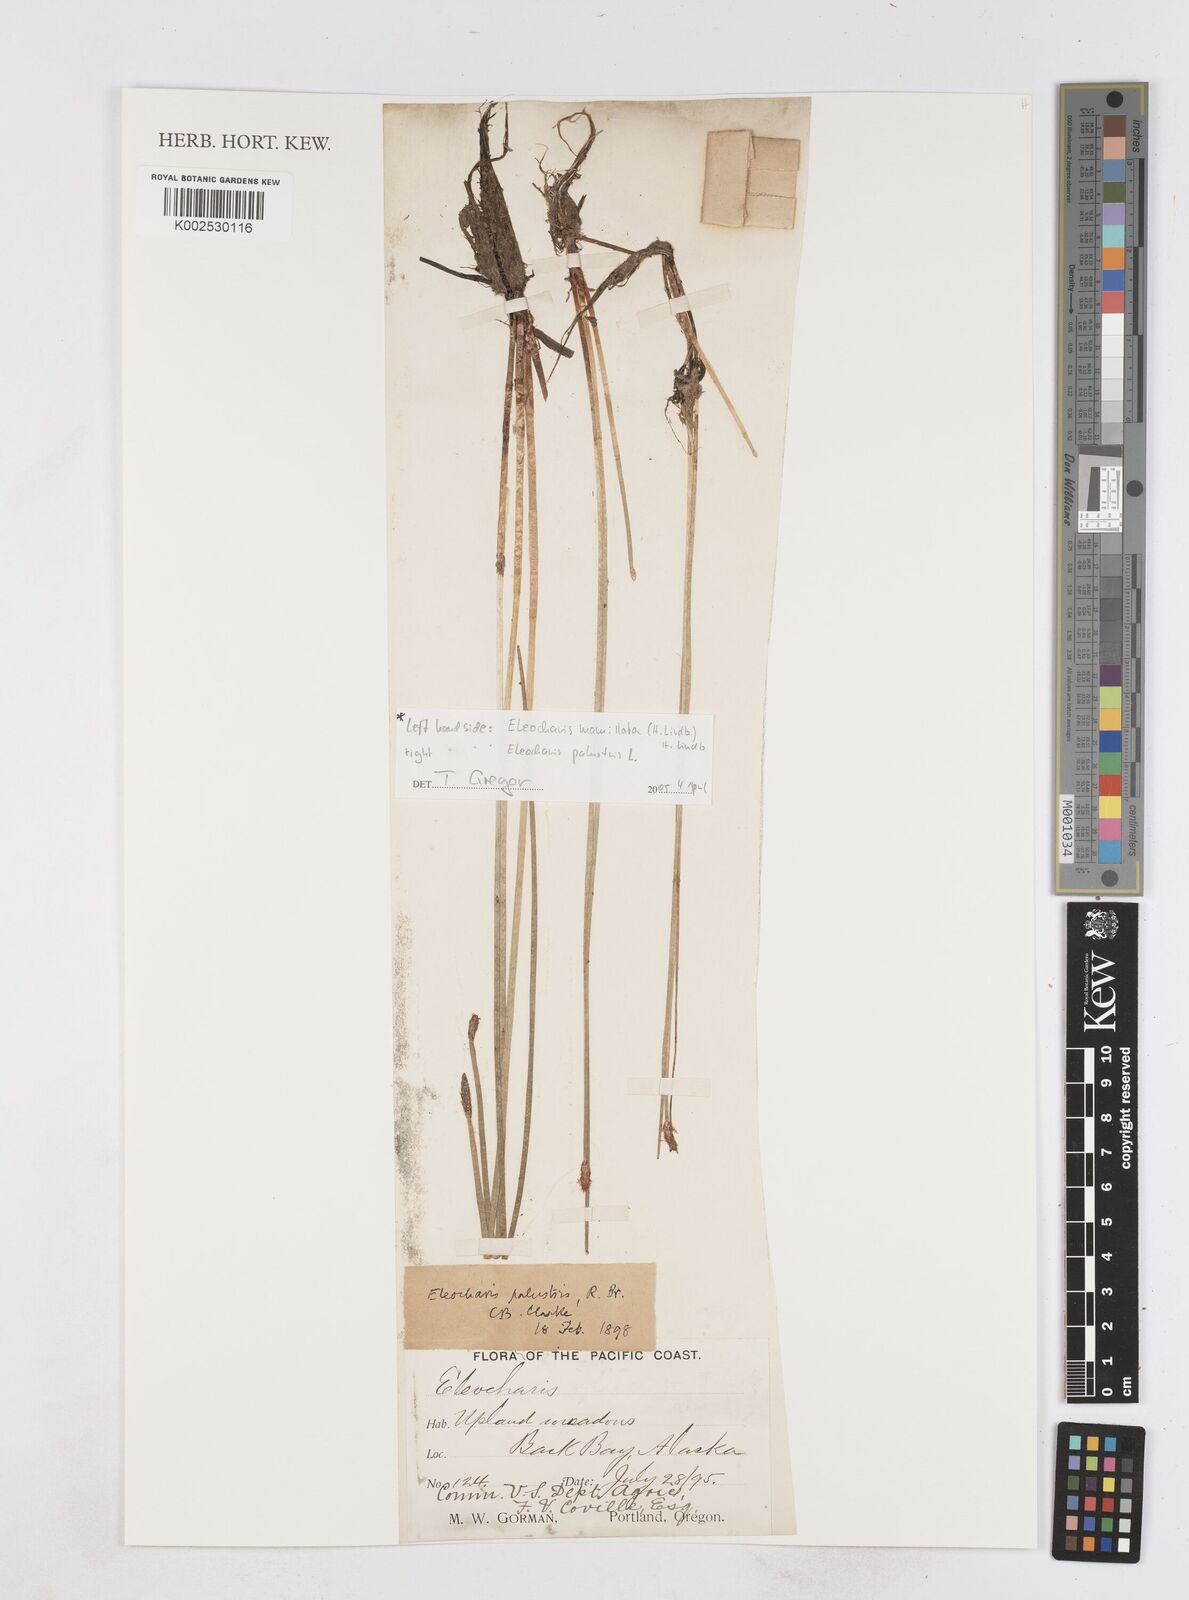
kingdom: Plantae
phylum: Tracheophyta
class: Liliopsida
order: Poales
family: Cyperaceae
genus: Eleocharis
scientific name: Eleocharis mamillata
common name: Northern spike-rush
